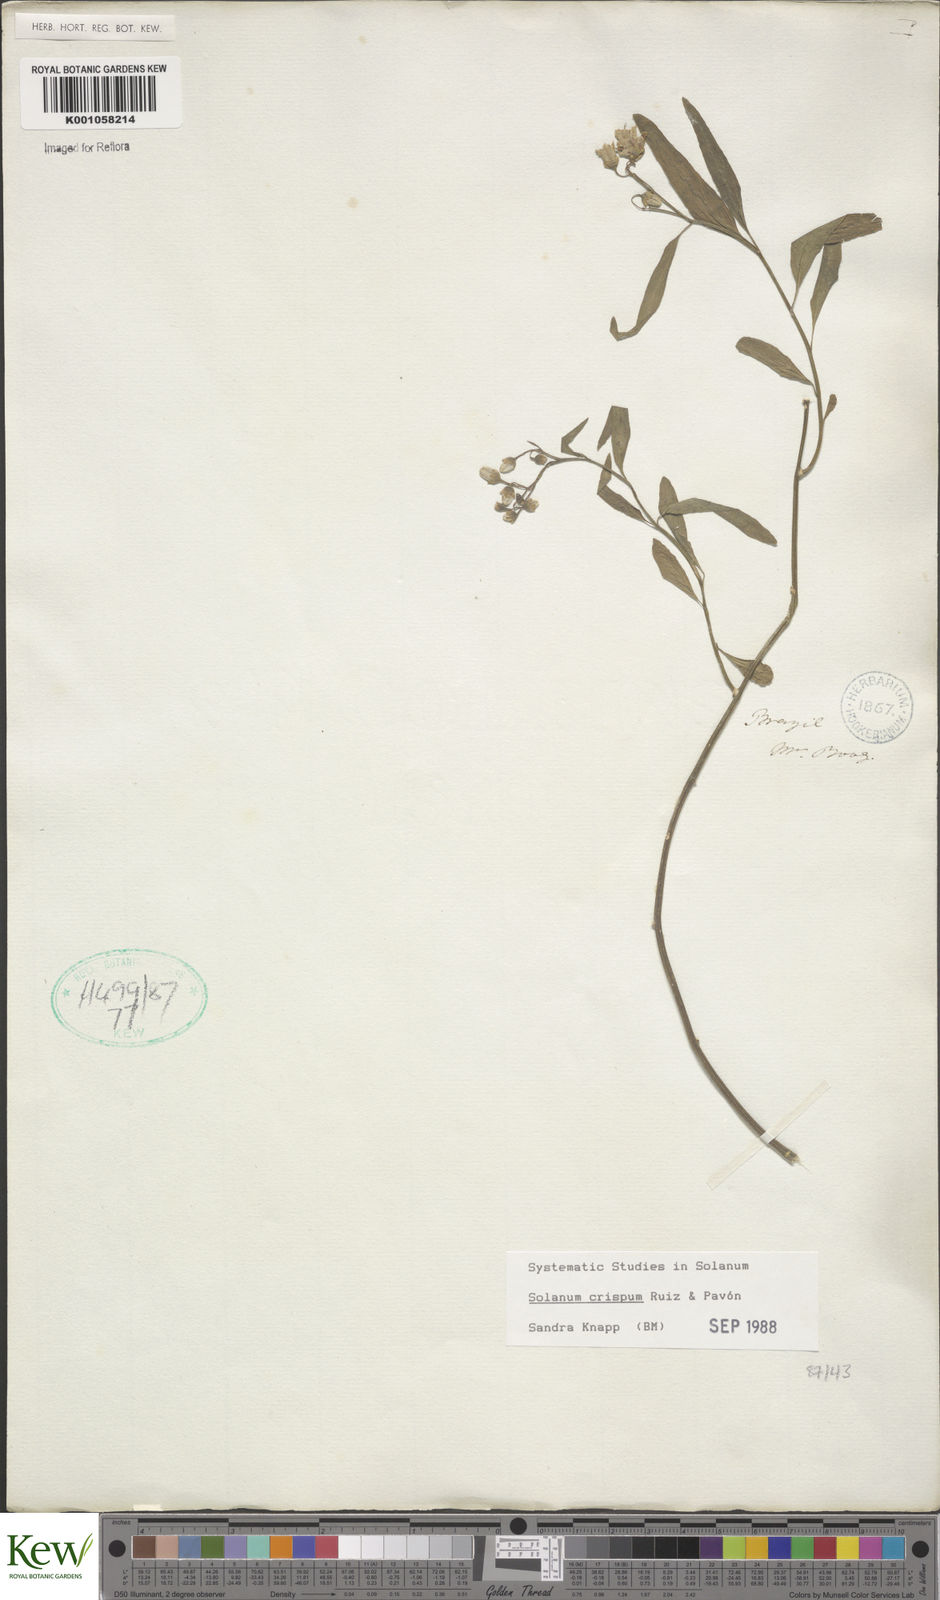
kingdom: Plantae
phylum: Tracheophyta
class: Magnoliopsida
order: Solanales
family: Solanaceae
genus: Solanum
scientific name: Solanum crispum
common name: Chilean nightshade
